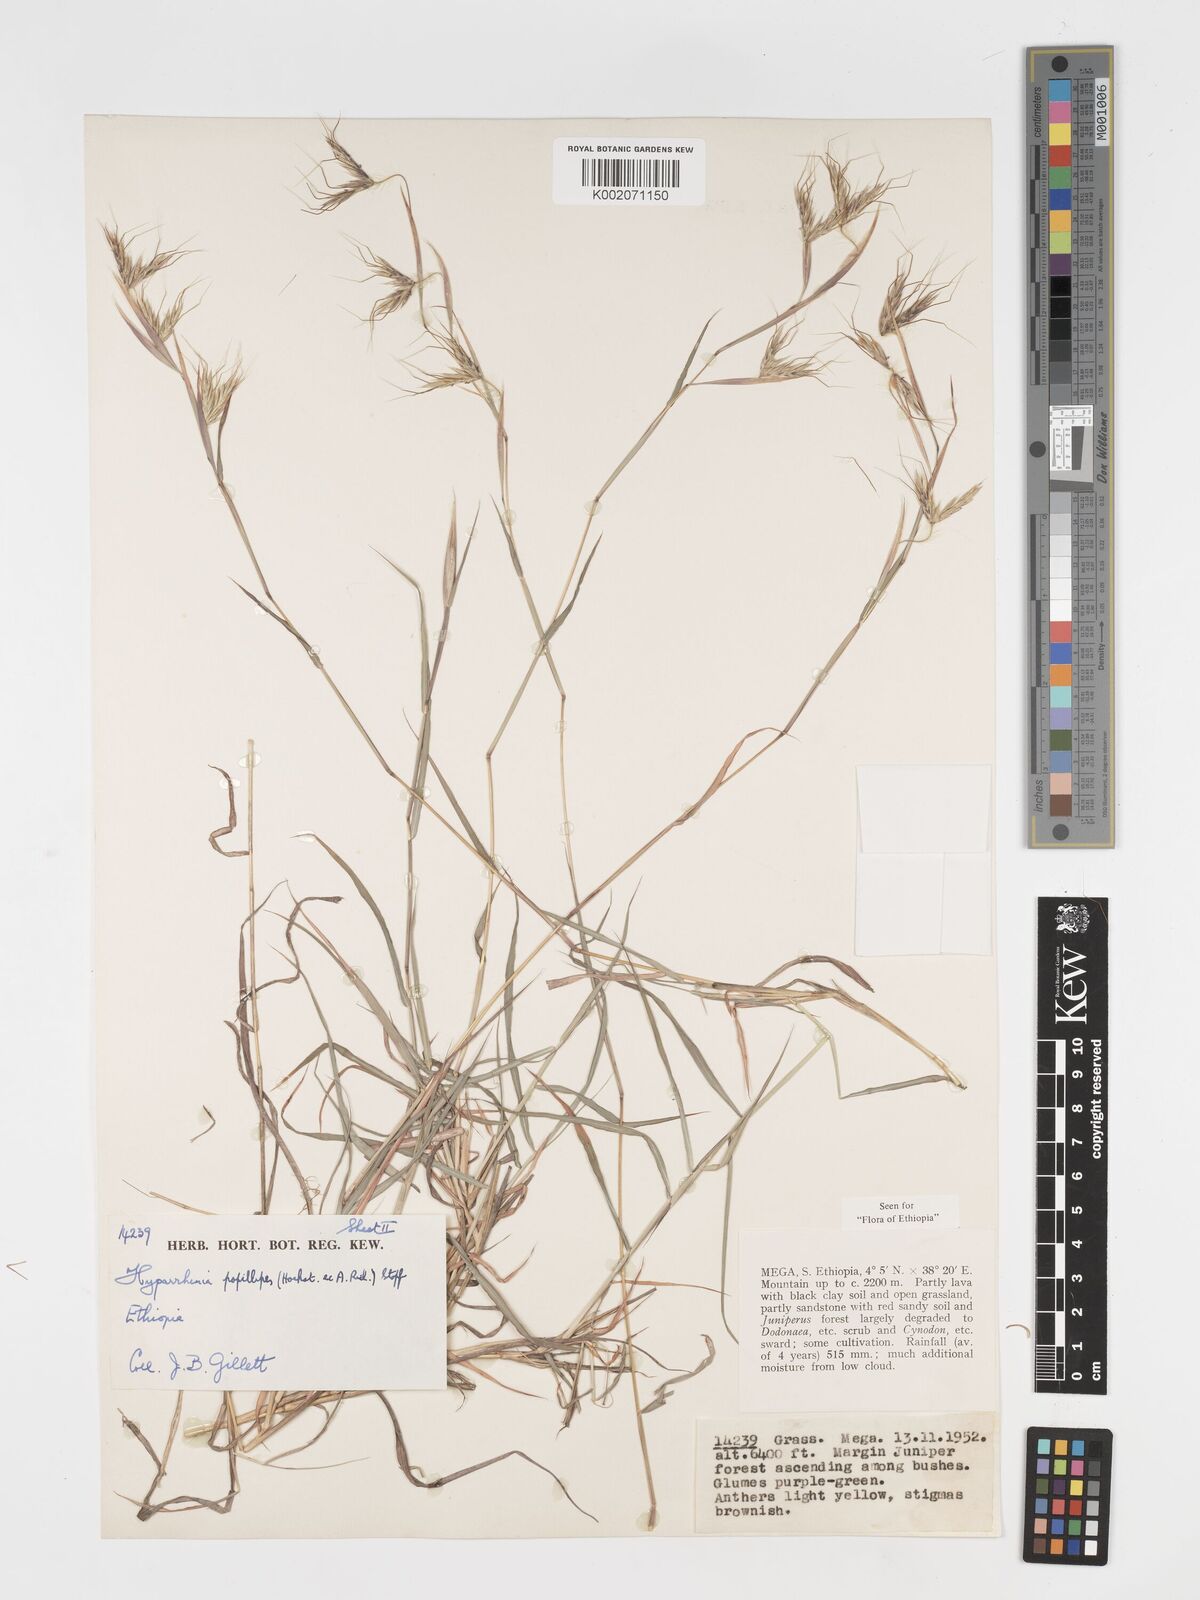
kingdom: Plantae
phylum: Tracheophyta
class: Liliopsida
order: Poales
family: Poaceae
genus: Hyparrhenia
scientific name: Hyparrhenia papillipes
